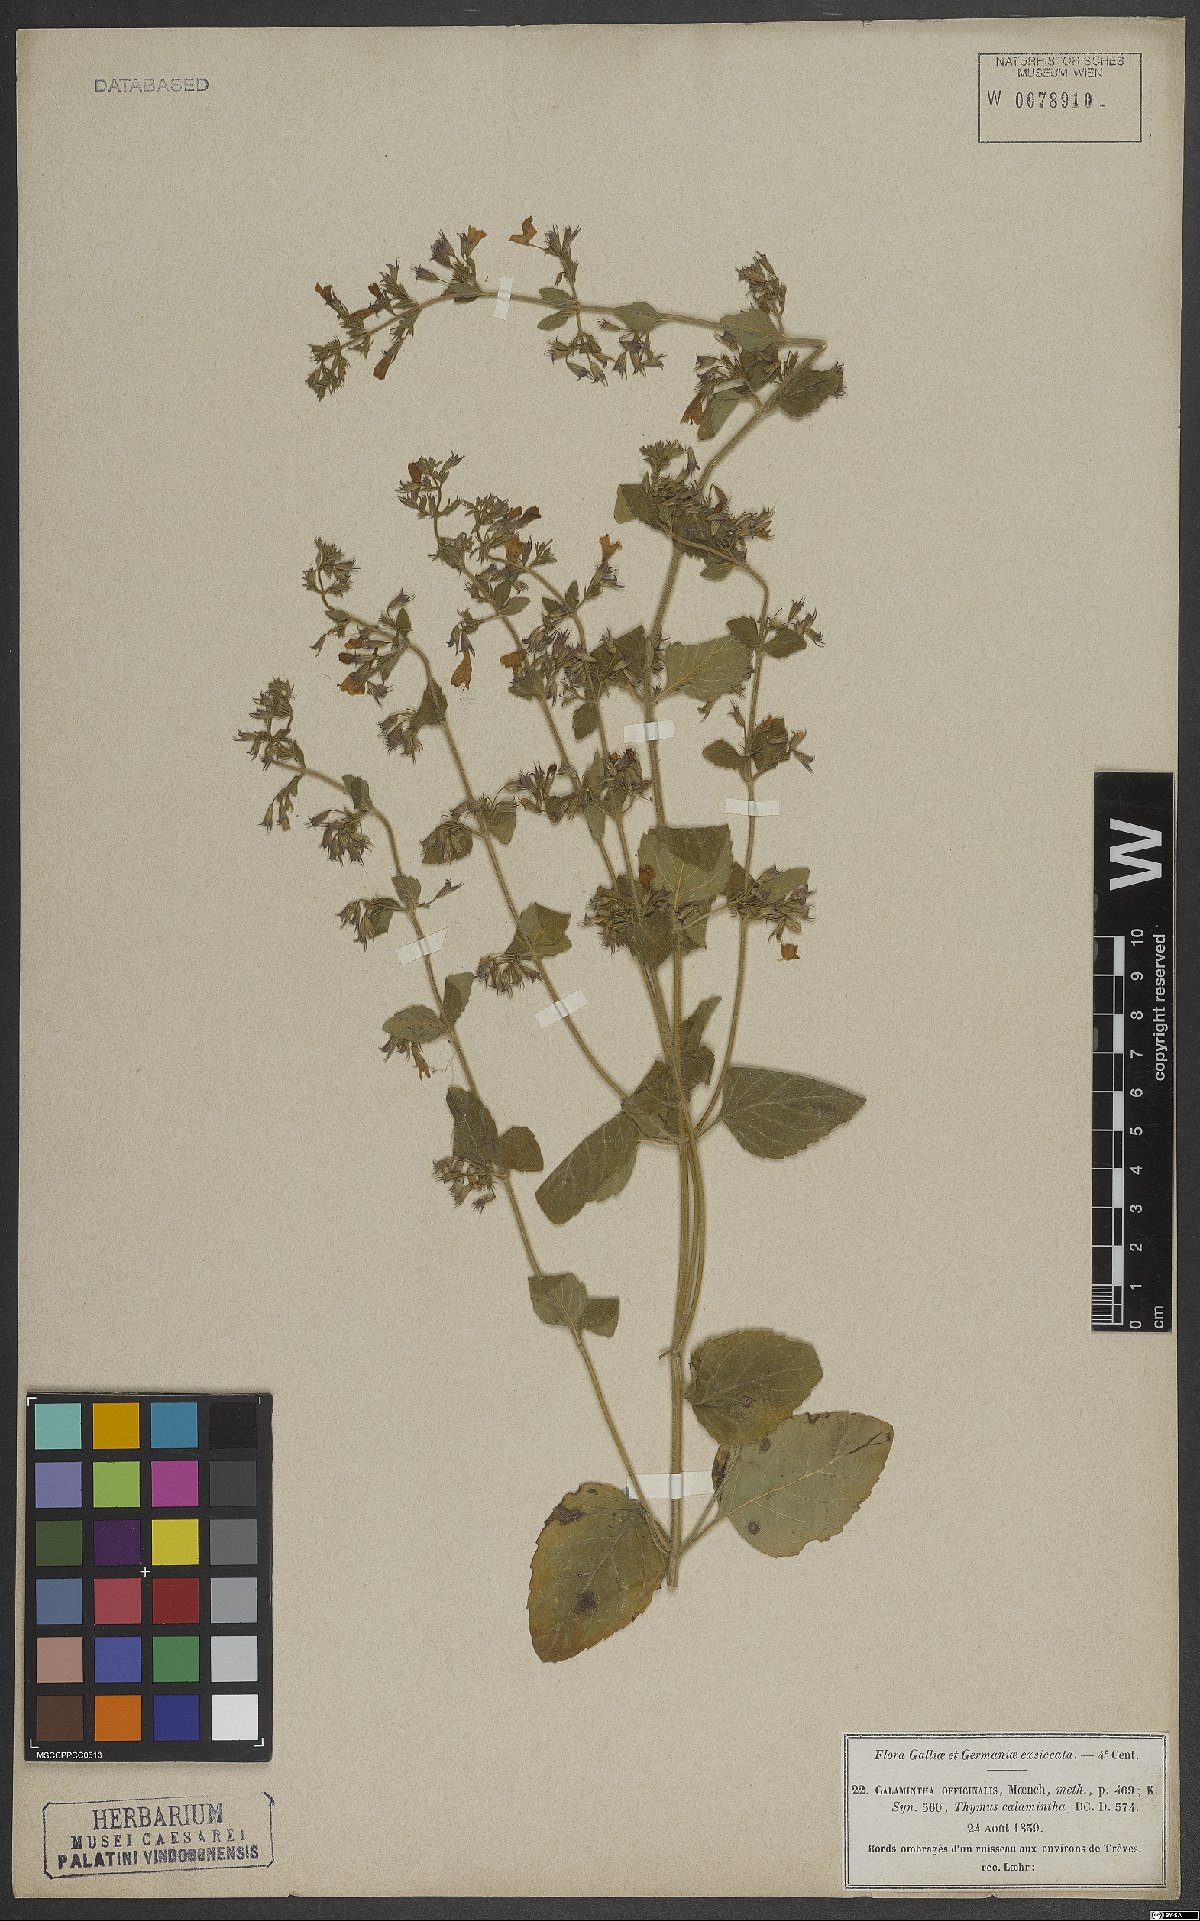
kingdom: Plantae
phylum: Tracheophyta
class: Magnoliopsida
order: Lamiales
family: Lamiaceae
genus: Clinopodium
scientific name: Clinopodium nepeta
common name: Lesser calamint
